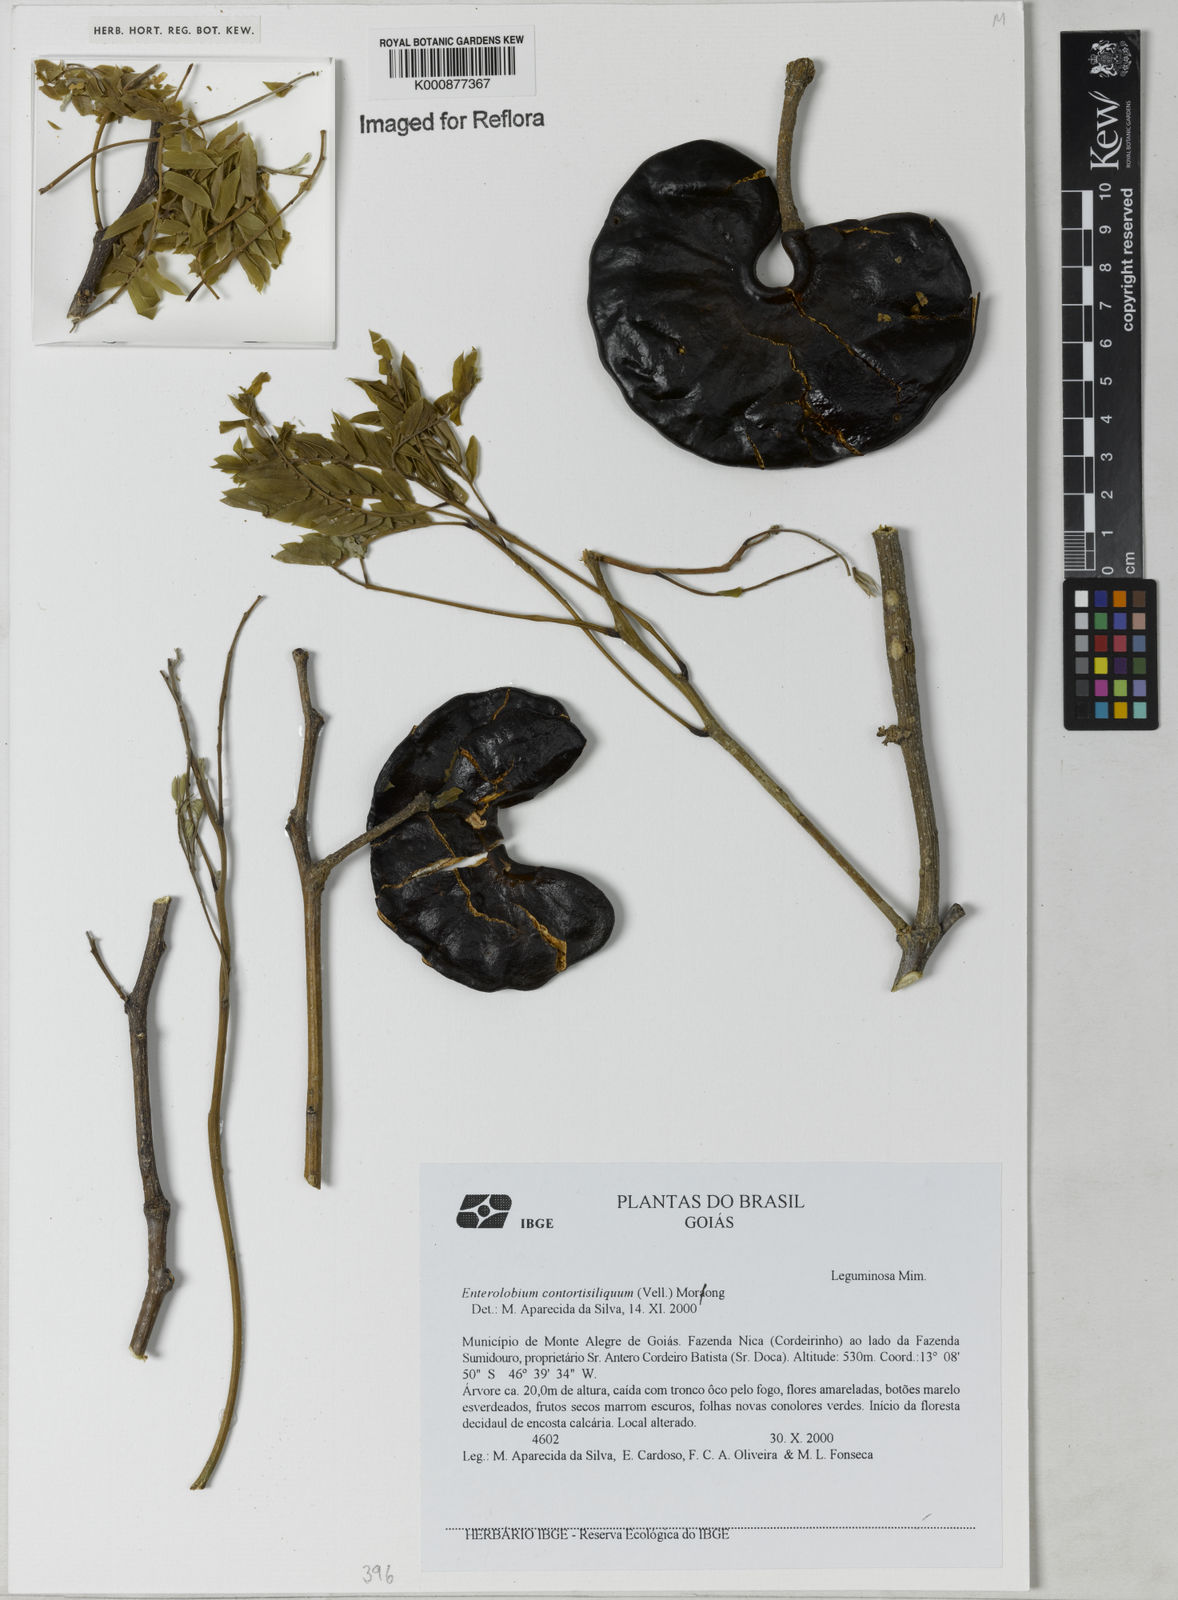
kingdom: Plantae
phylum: Tracheophyta
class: Magnoliopsida
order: Fabales
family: Fabaceae
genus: Enterolobium
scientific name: Enterolobium contortisiliquum
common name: Pacara earpod tree
